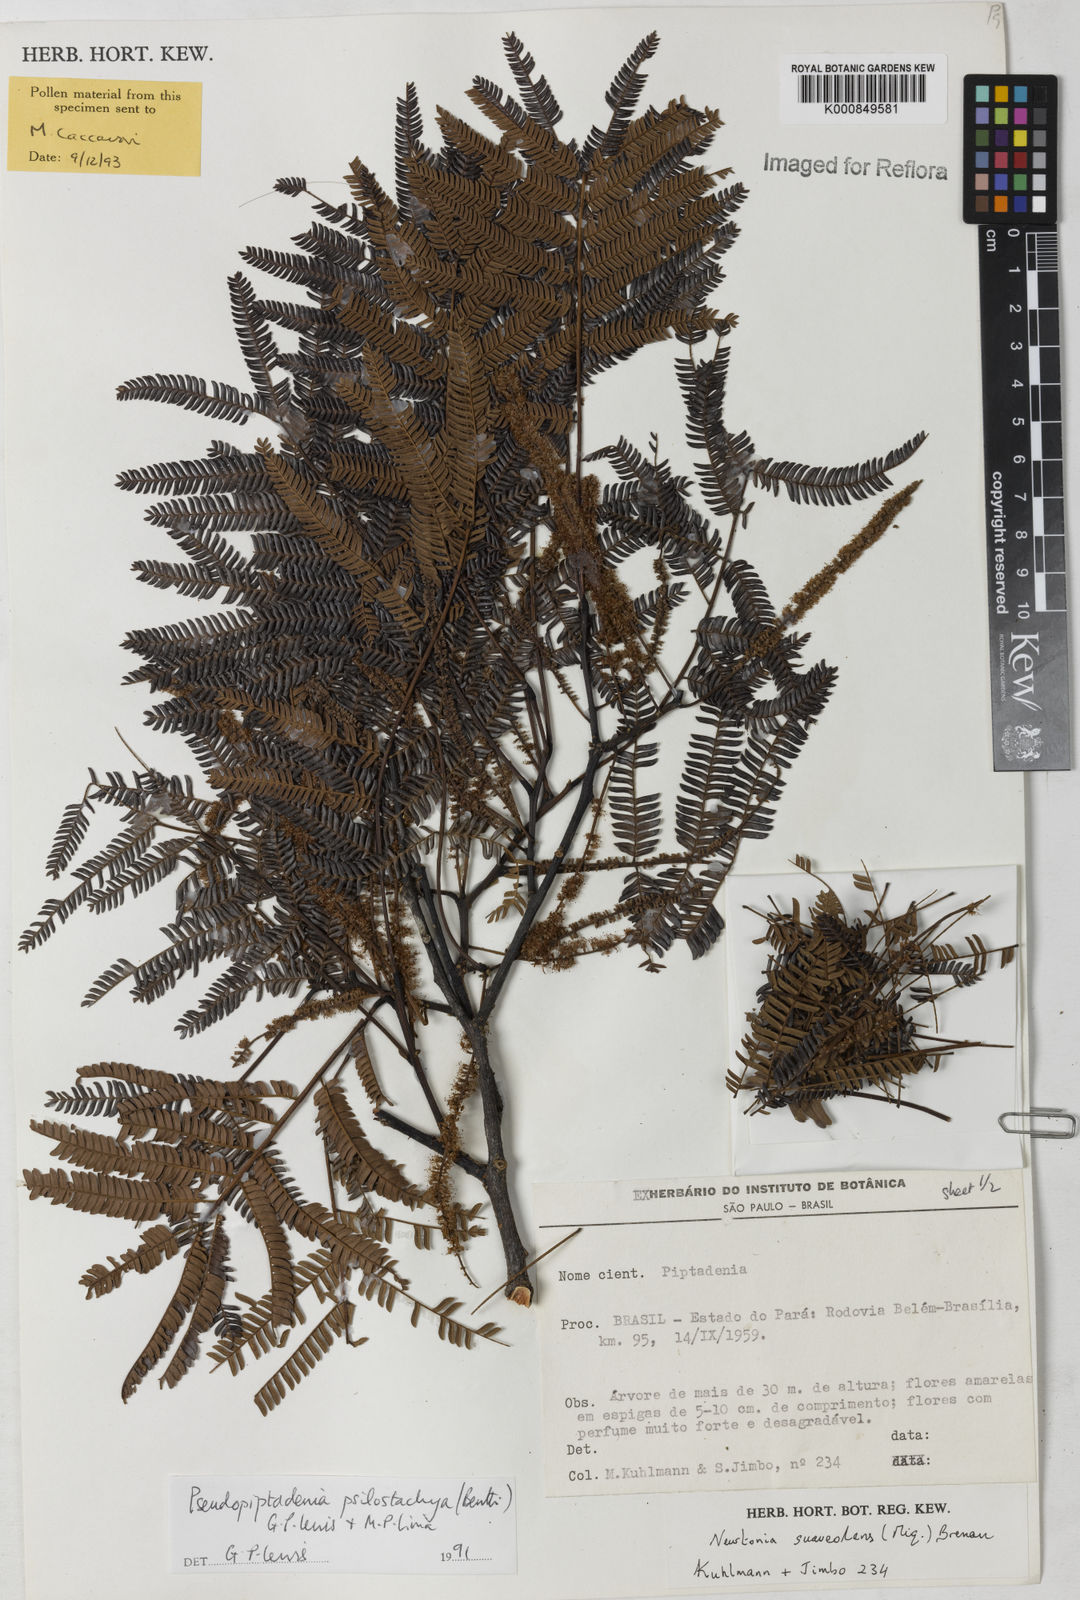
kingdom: Plantae
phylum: Tracheophyta
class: Magnoliopsida
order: Fabales
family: Fabaceae
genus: Pseudopiptadenia
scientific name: Pseudopiptadenia psilostachya
